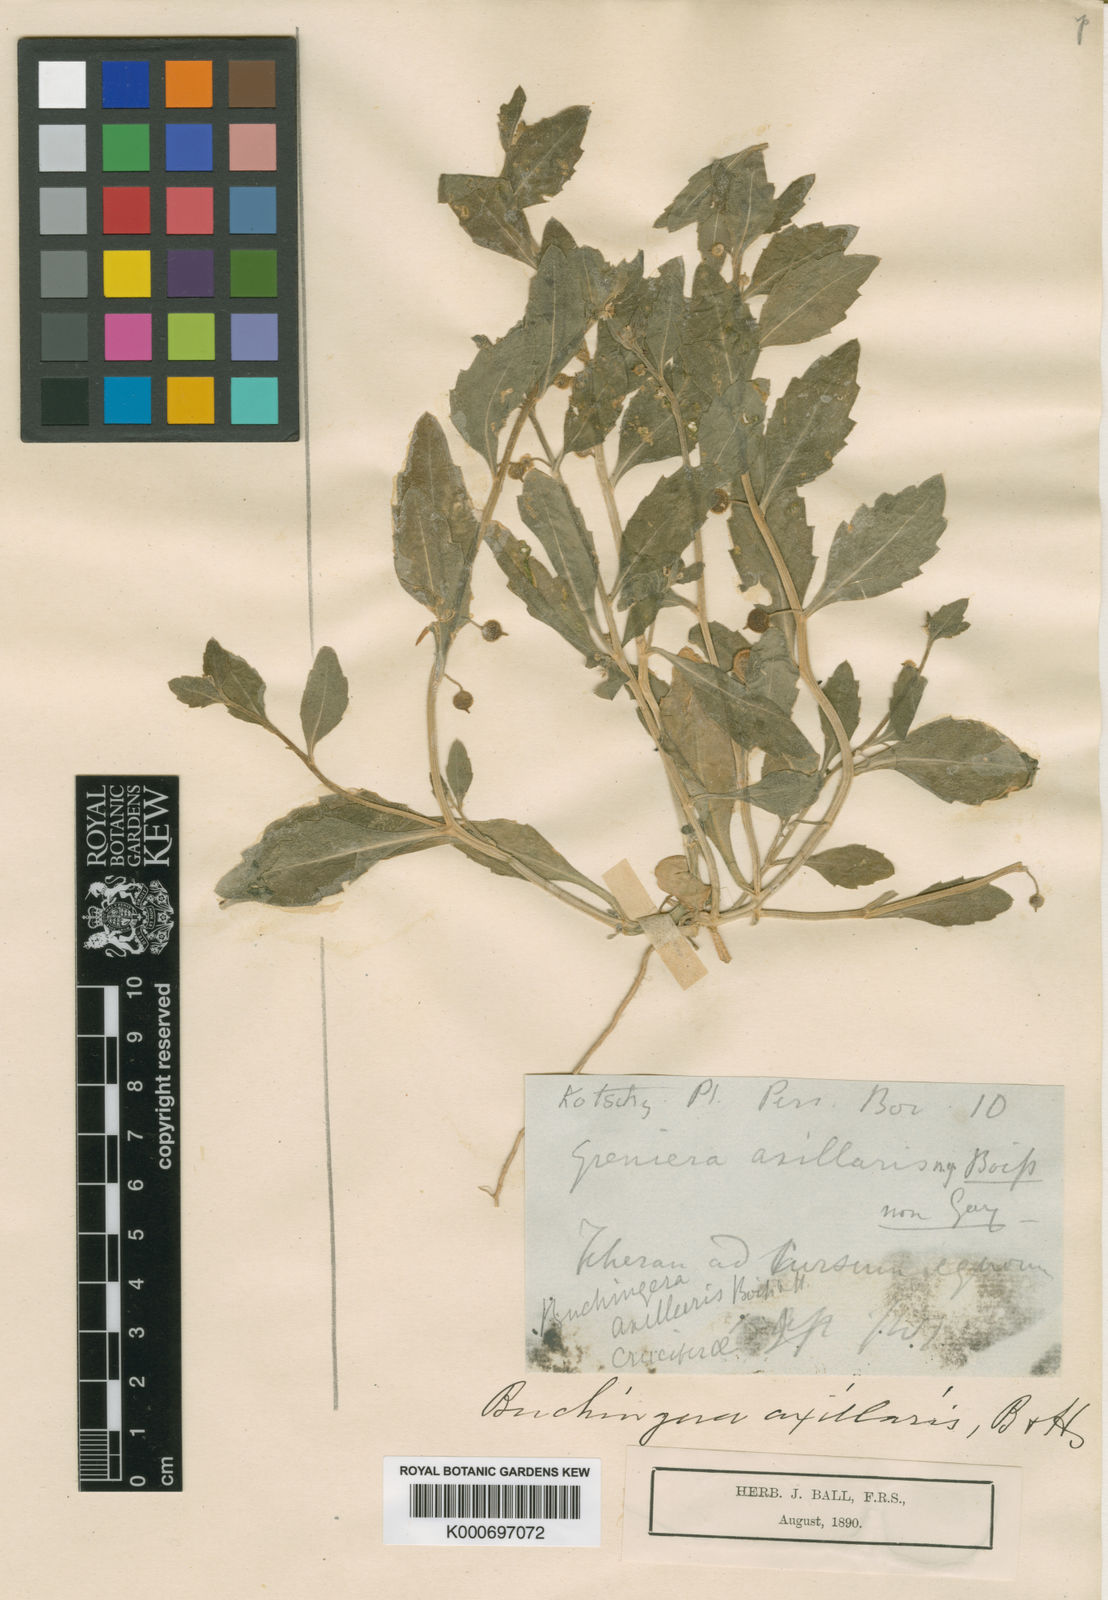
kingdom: Plantae
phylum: Tracheophyta
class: Magnoliopsida
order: Brassicales
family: Brassicaceae
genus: Asperuginoides
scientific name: Asperuginoides axillaris
